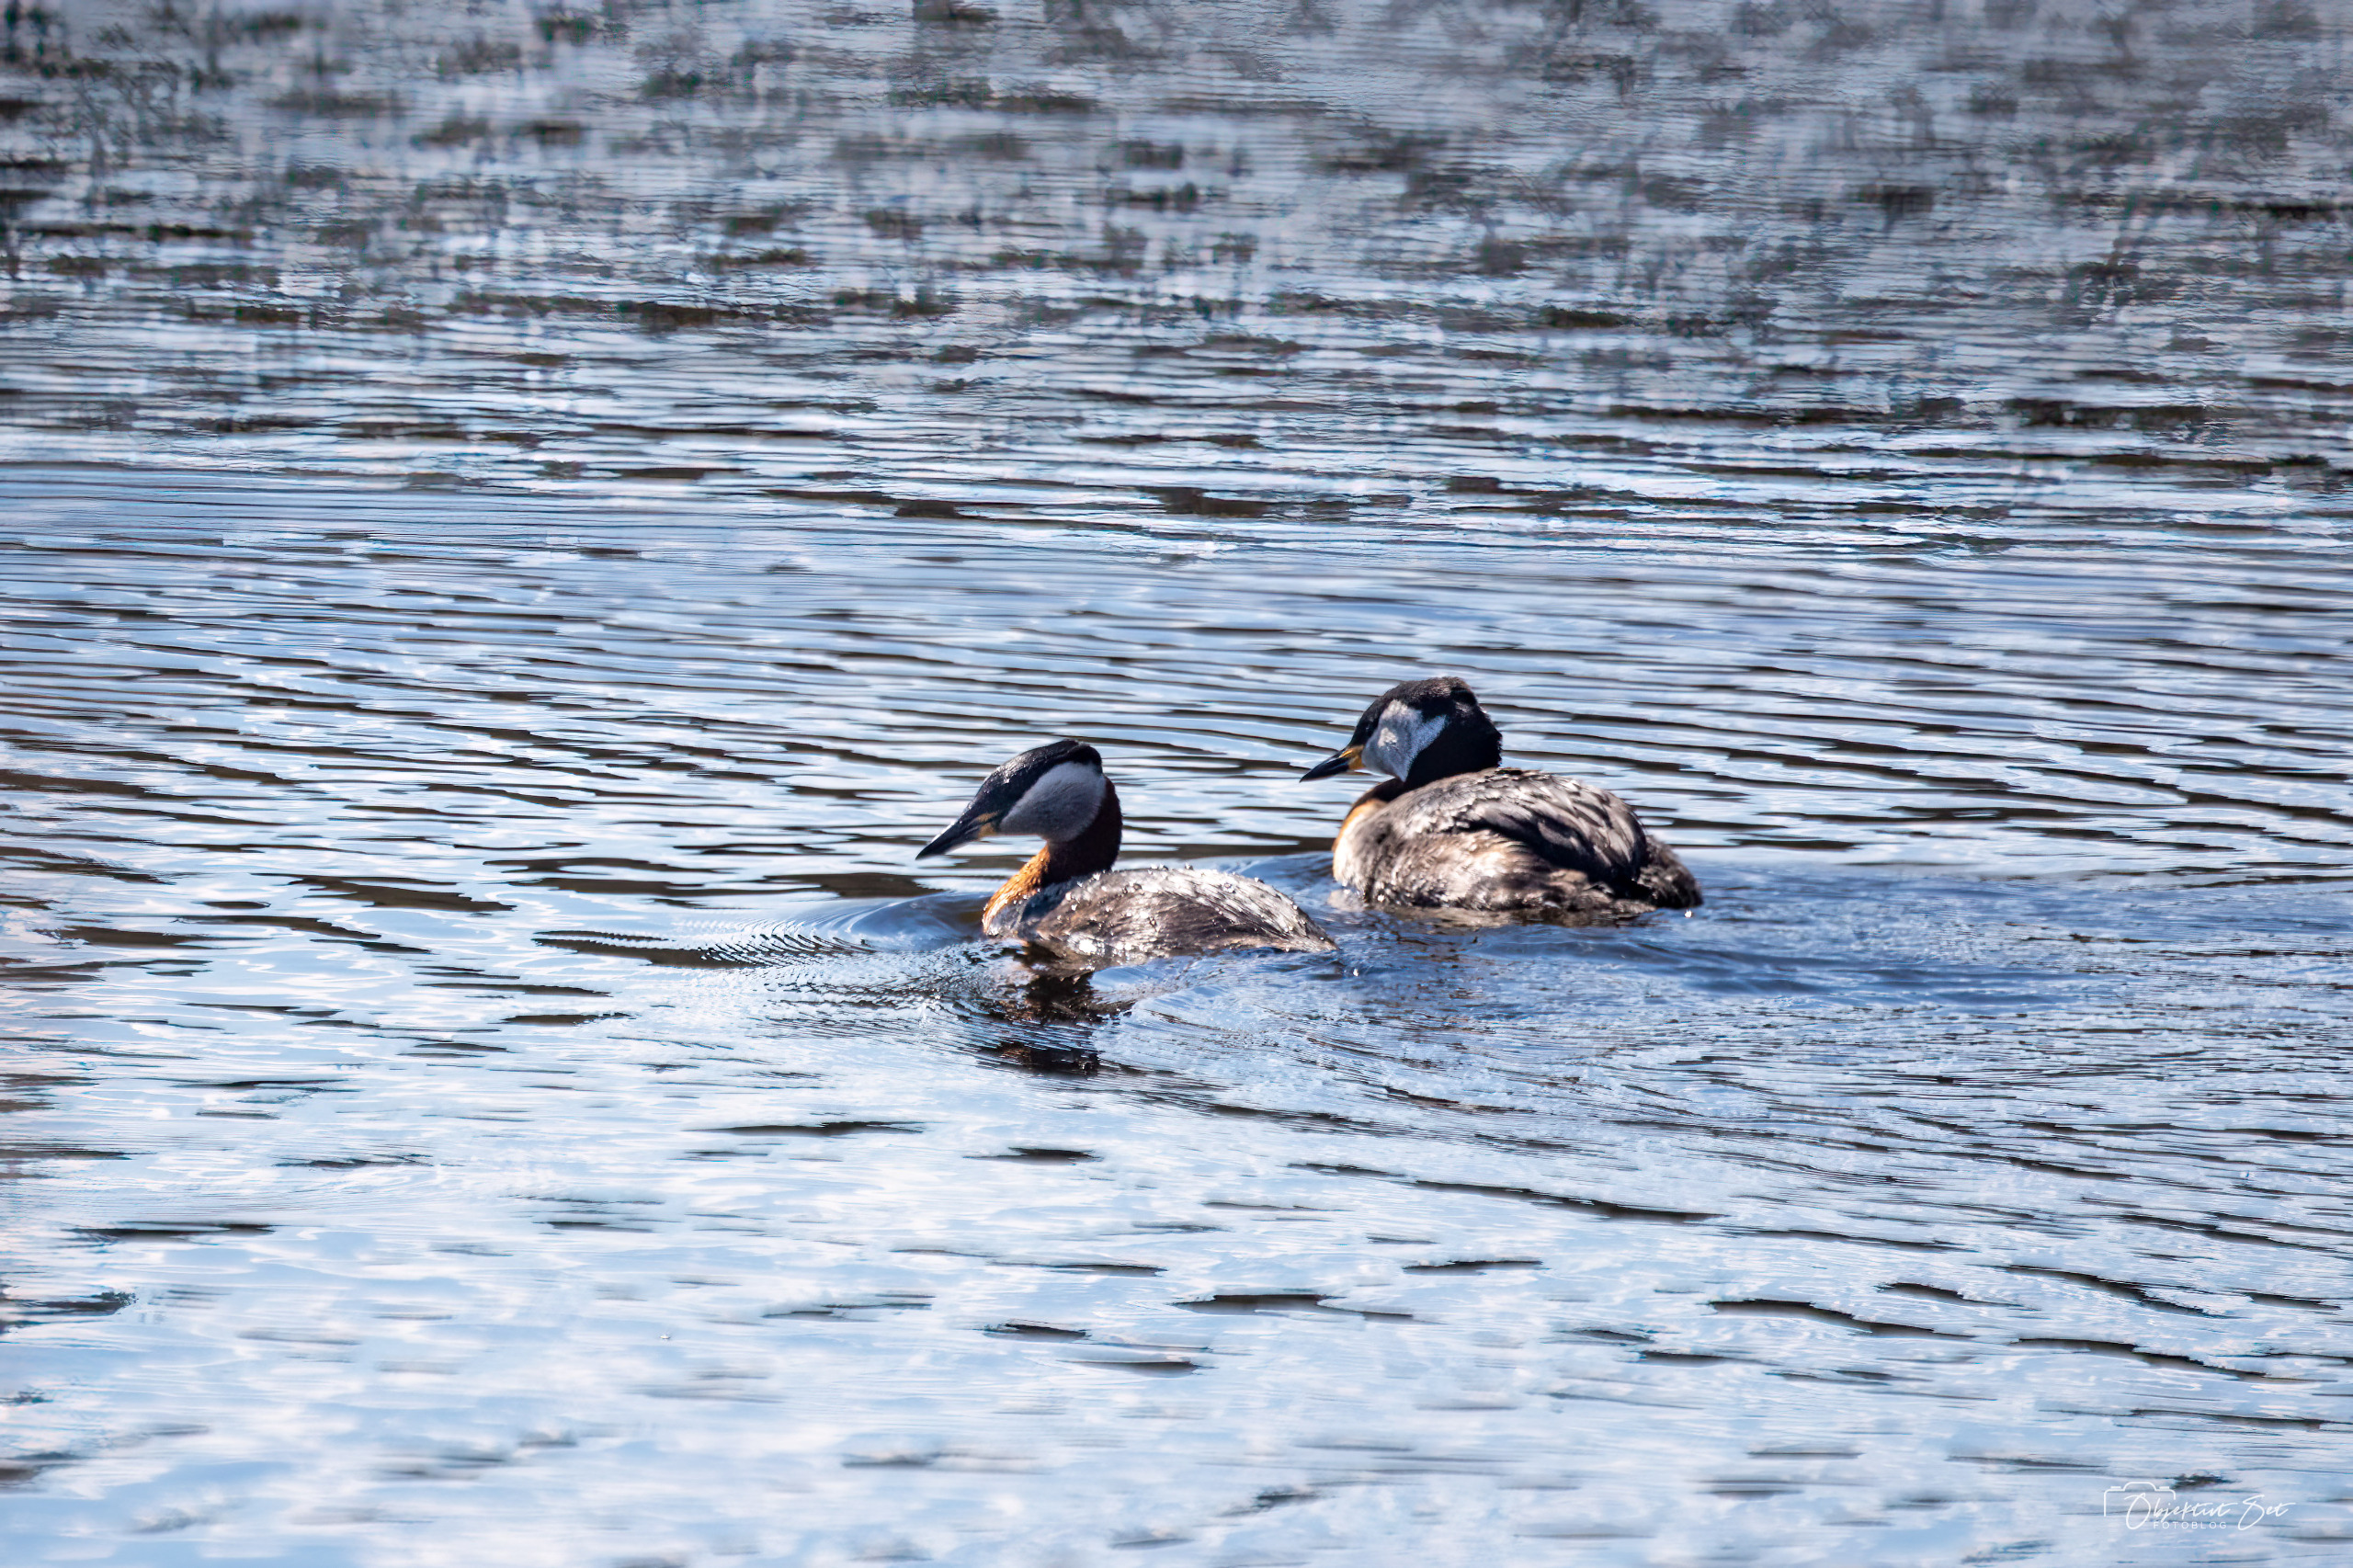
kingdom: Animalia
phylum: Chordata
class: Aves
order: Podicipediformes
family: Podicipedidae
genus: Podiceps
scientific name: Podiceps grisegena
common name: Gråstrubet lappedykker
